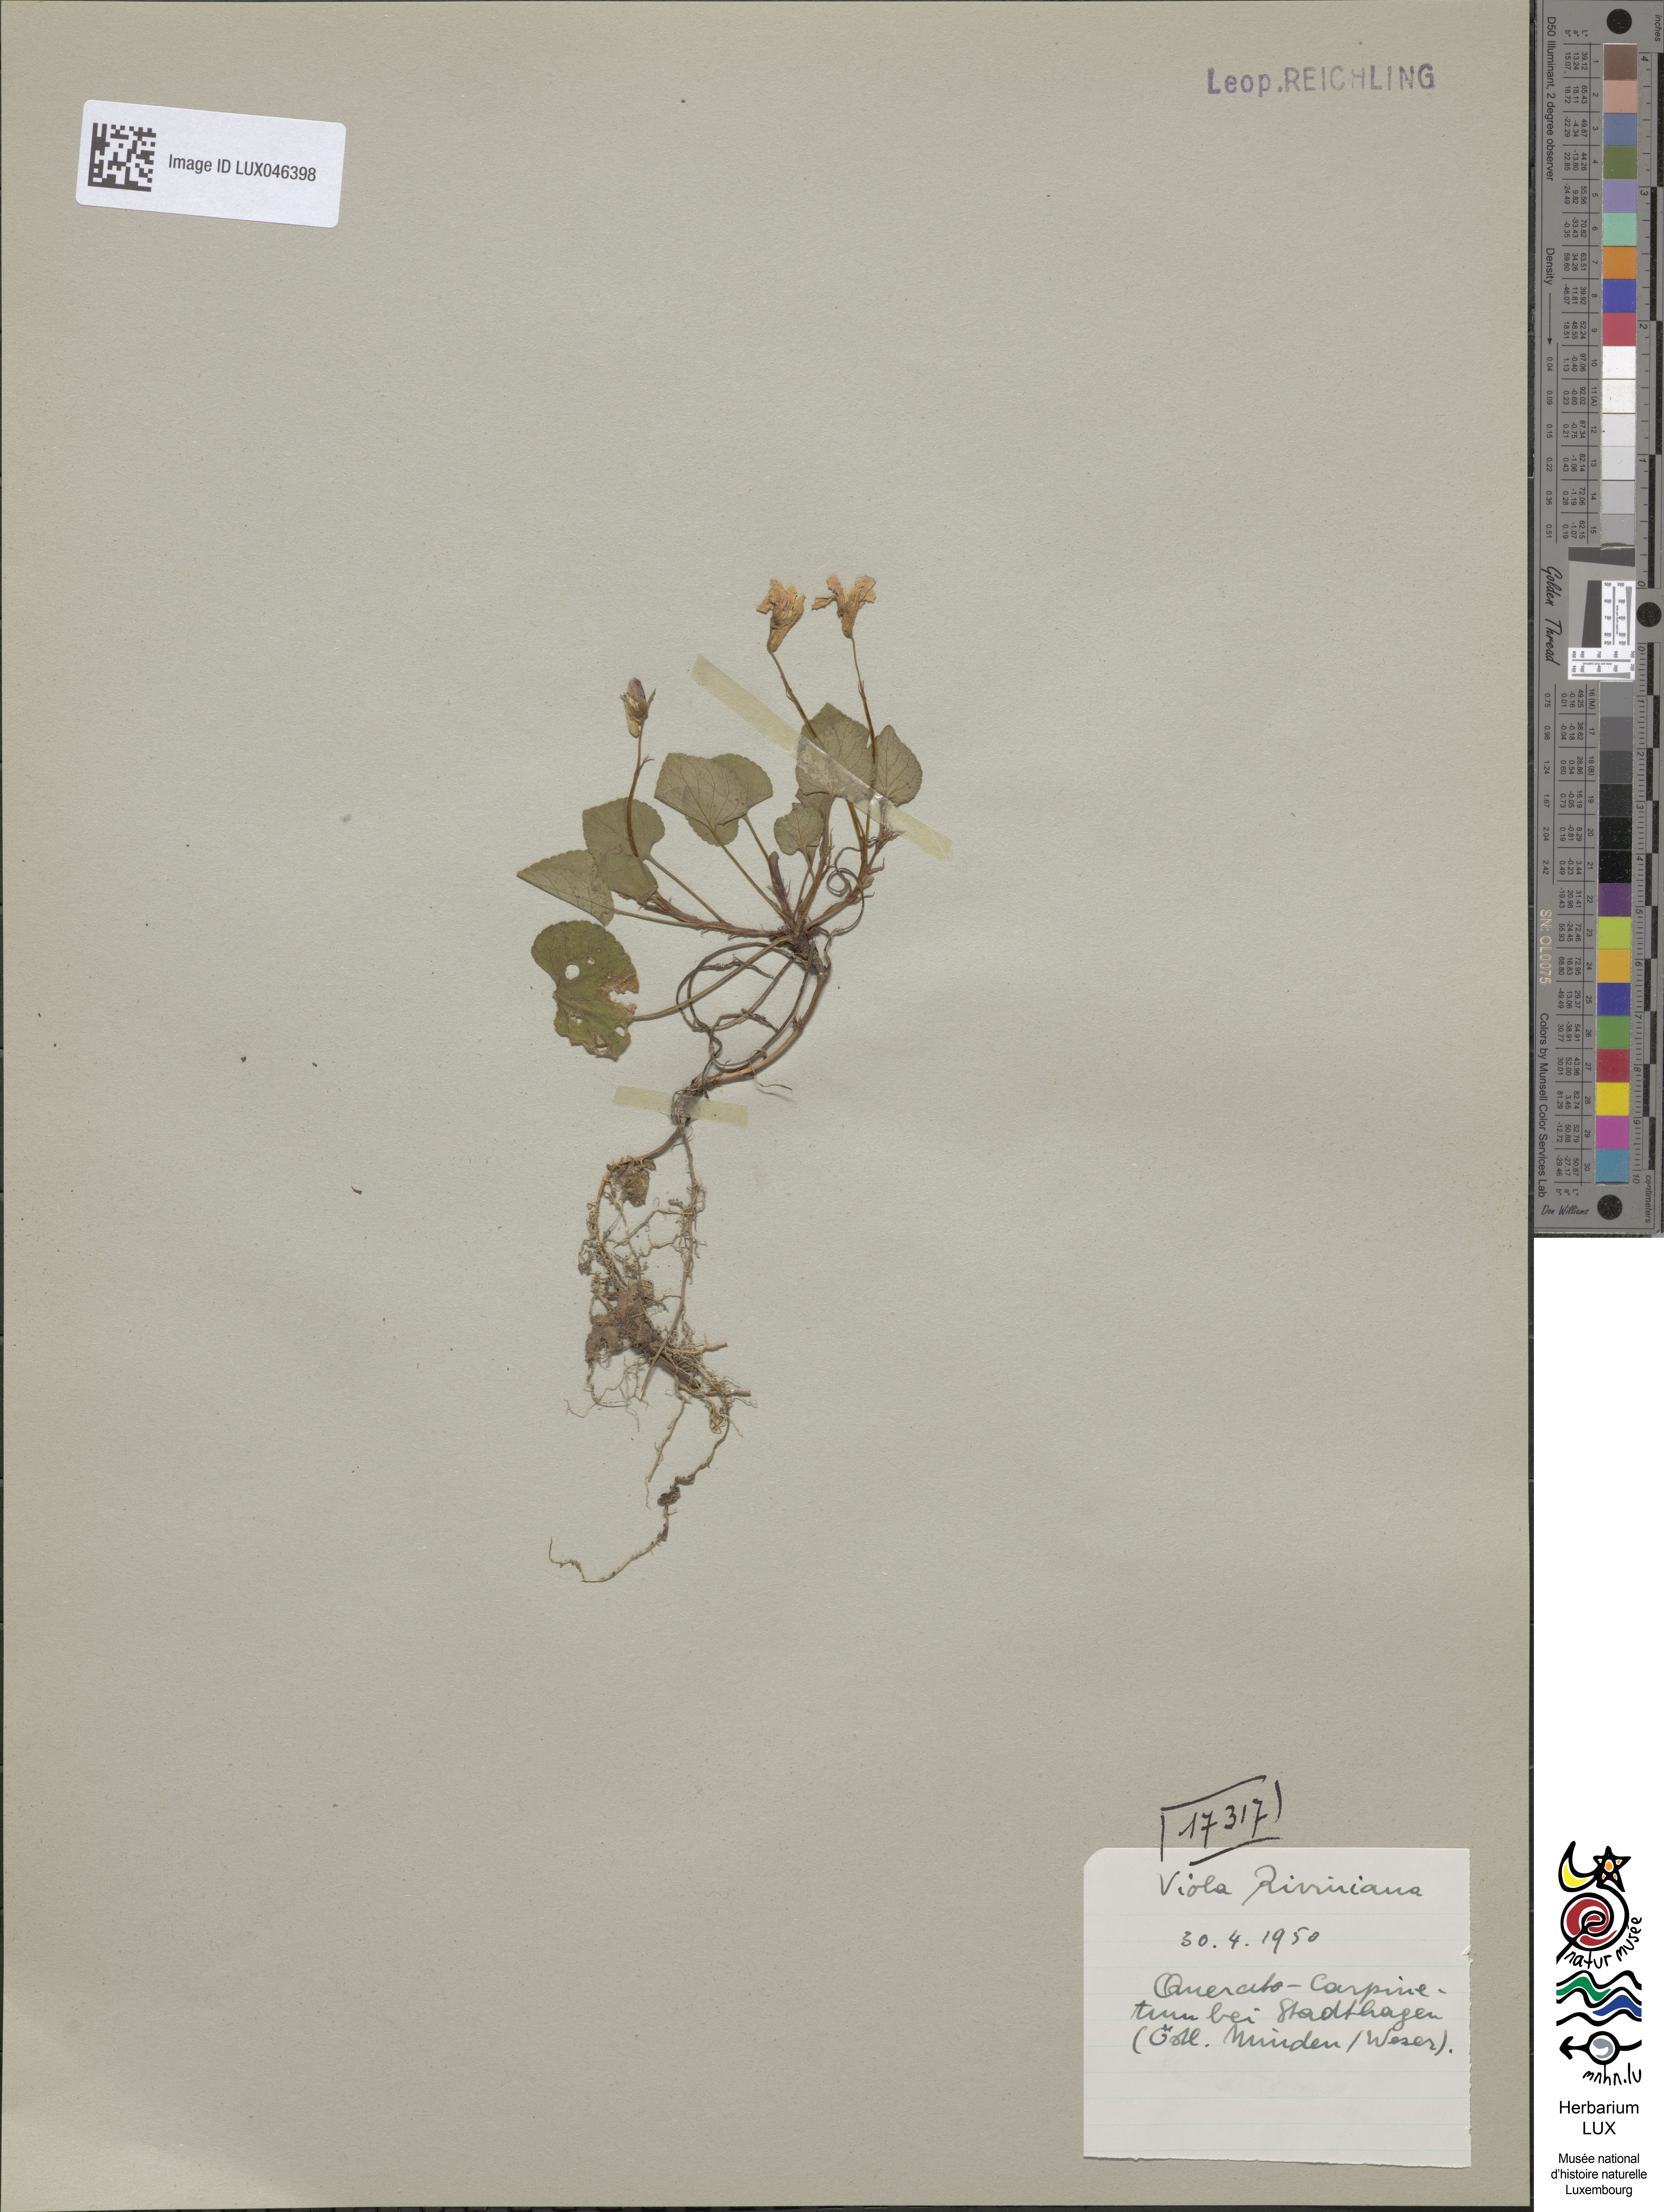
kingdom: Plantae
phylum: Tracheophyta
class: Magnoliopsida
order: Malpighiales
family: Violaceae
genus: Viola
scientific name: Viola riviniana
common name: Common dog-violet
